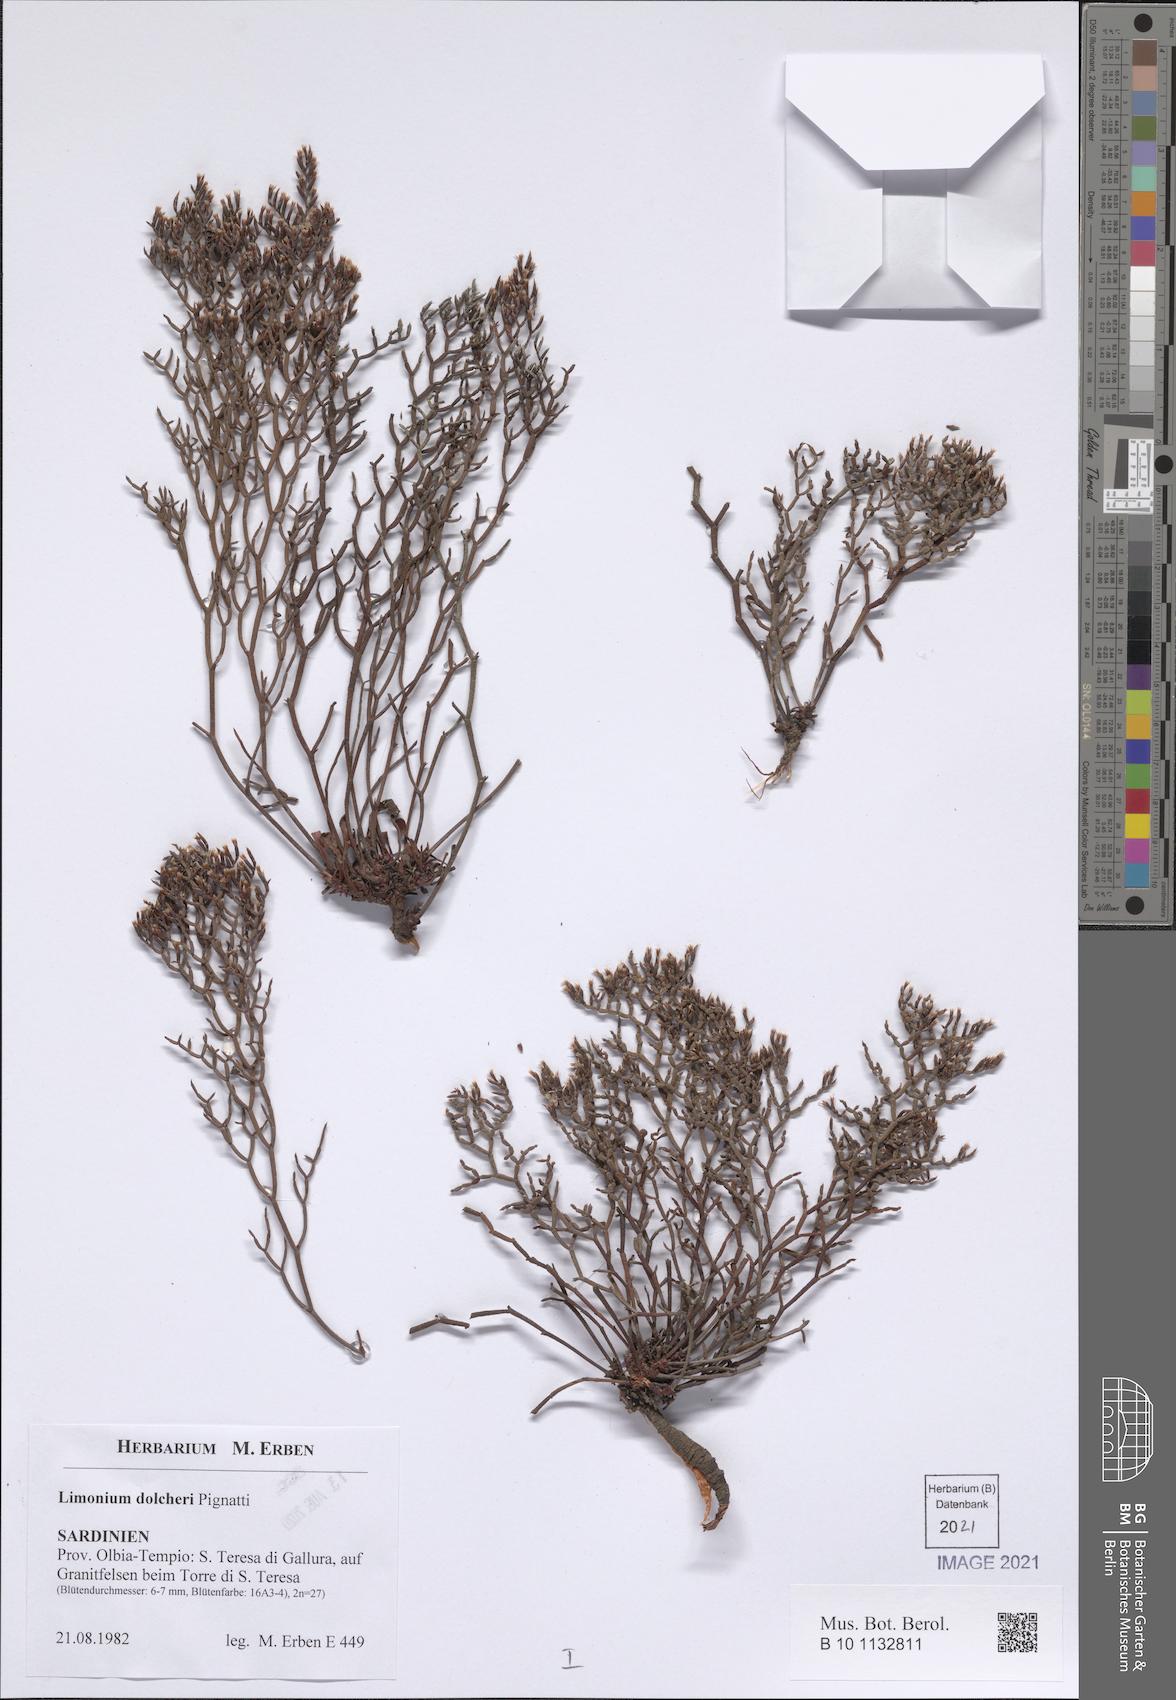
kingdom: Plantae
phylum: Tracheophyta
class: Magnoliopsida
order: Caryophyllales
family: Plumbaginaceae
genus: Limonium
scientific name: Limonium dolcheri
